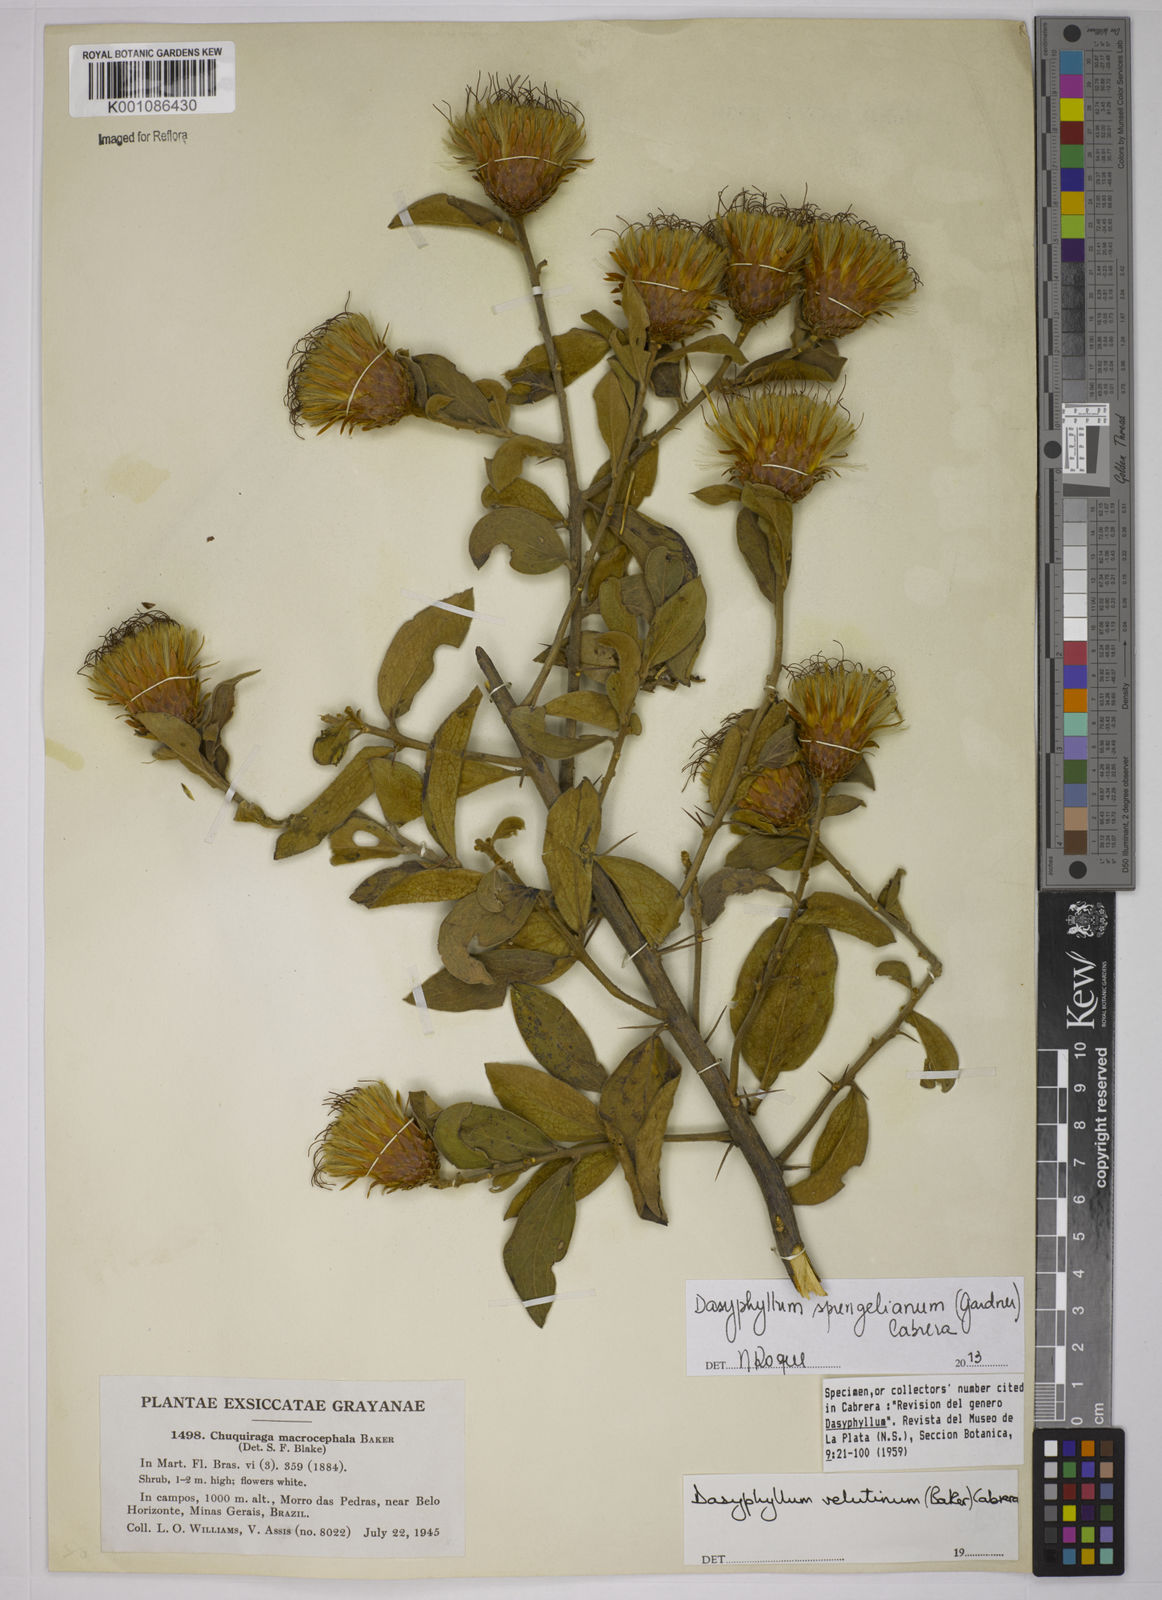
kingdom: Plantae
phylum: Tracheophyta
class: Magnoliopsida
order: Asterales
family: Asteraceae
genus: Dasyphyllum
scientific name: Dasyphyllum velutinum
